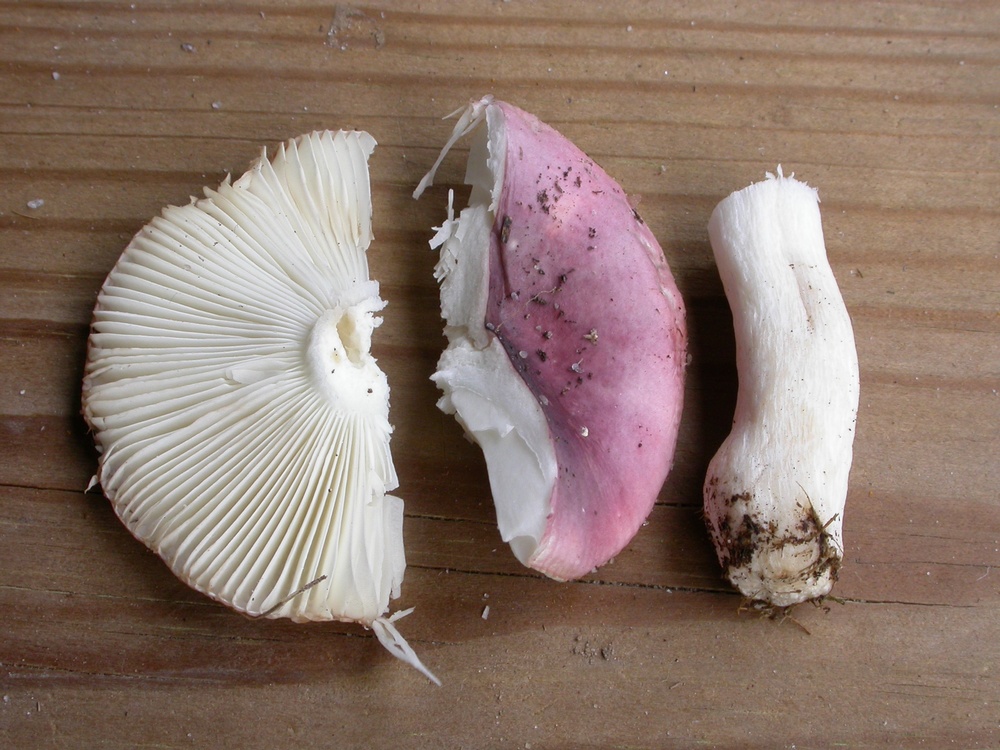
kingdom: Fungi
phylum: Basidiomycota
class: Agaricomycetes
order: Russulales
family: Russulaceae
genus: Russula
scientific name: Russula pelargonia
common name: pelargonie-skørhat
